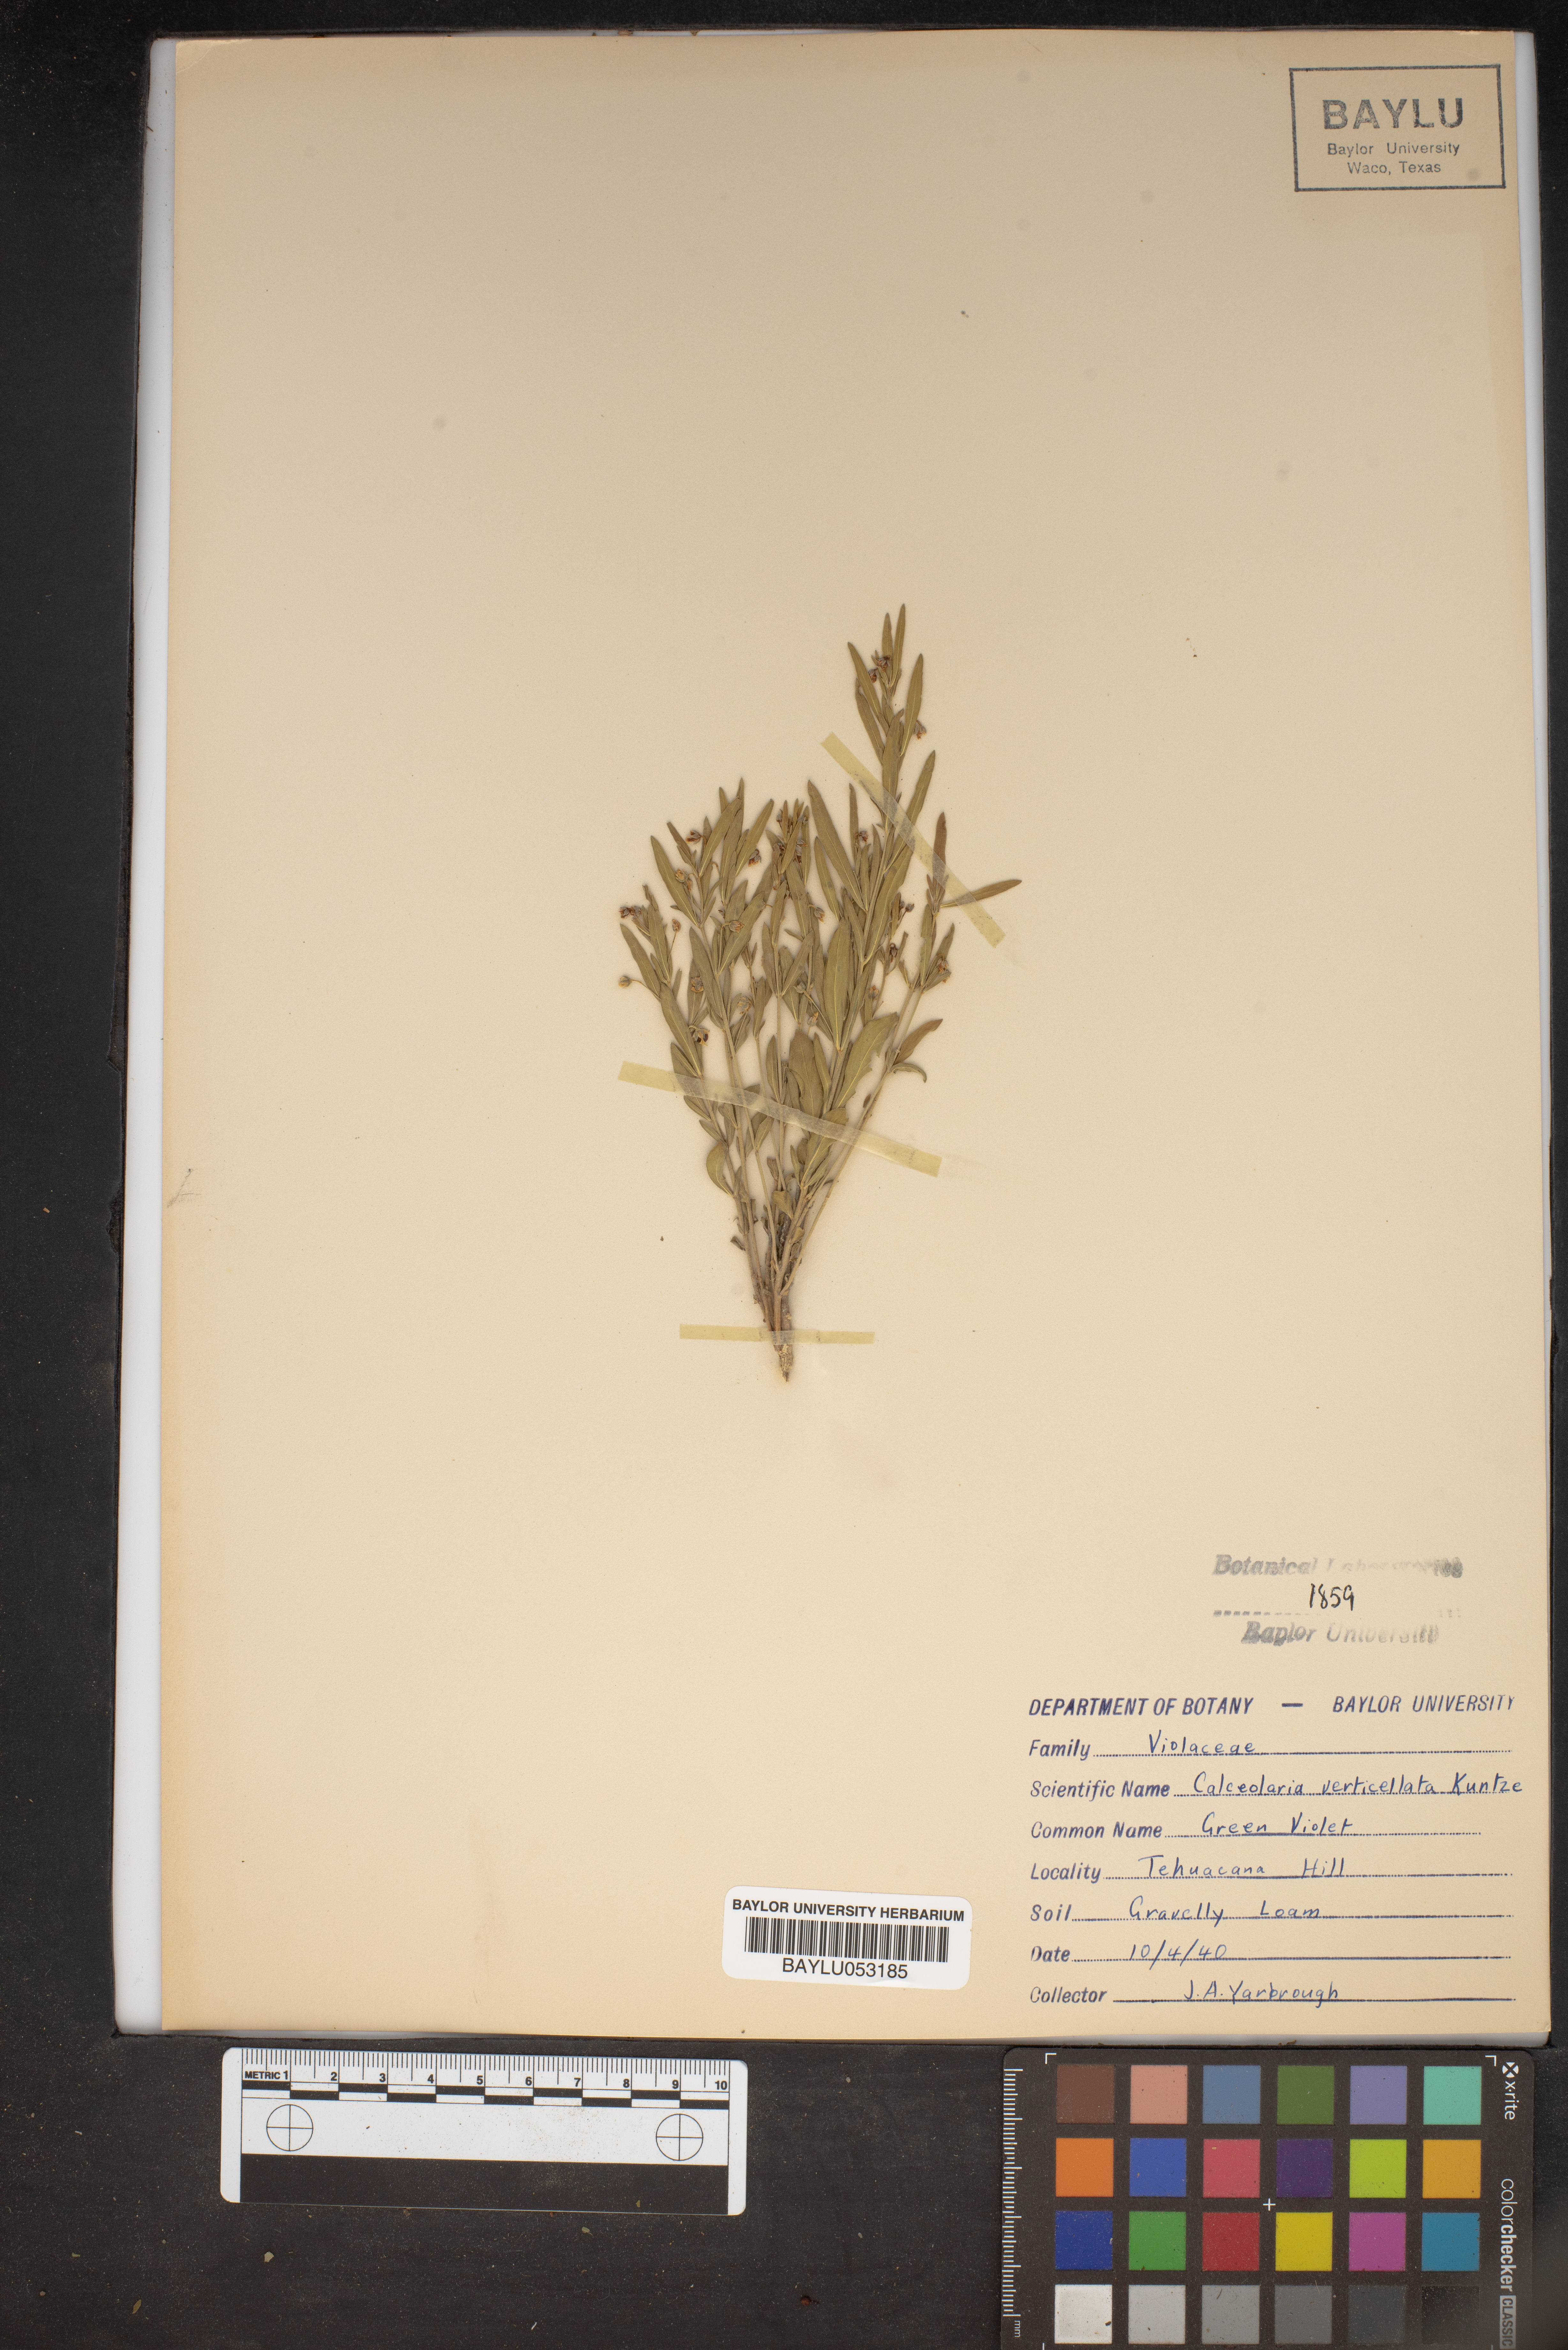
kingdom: Plantae
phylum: Tracheophyta
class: Magnoliopsida
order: Malpighiales
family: Violaceae
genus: Pombalia
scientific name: Pombalia verticillata
